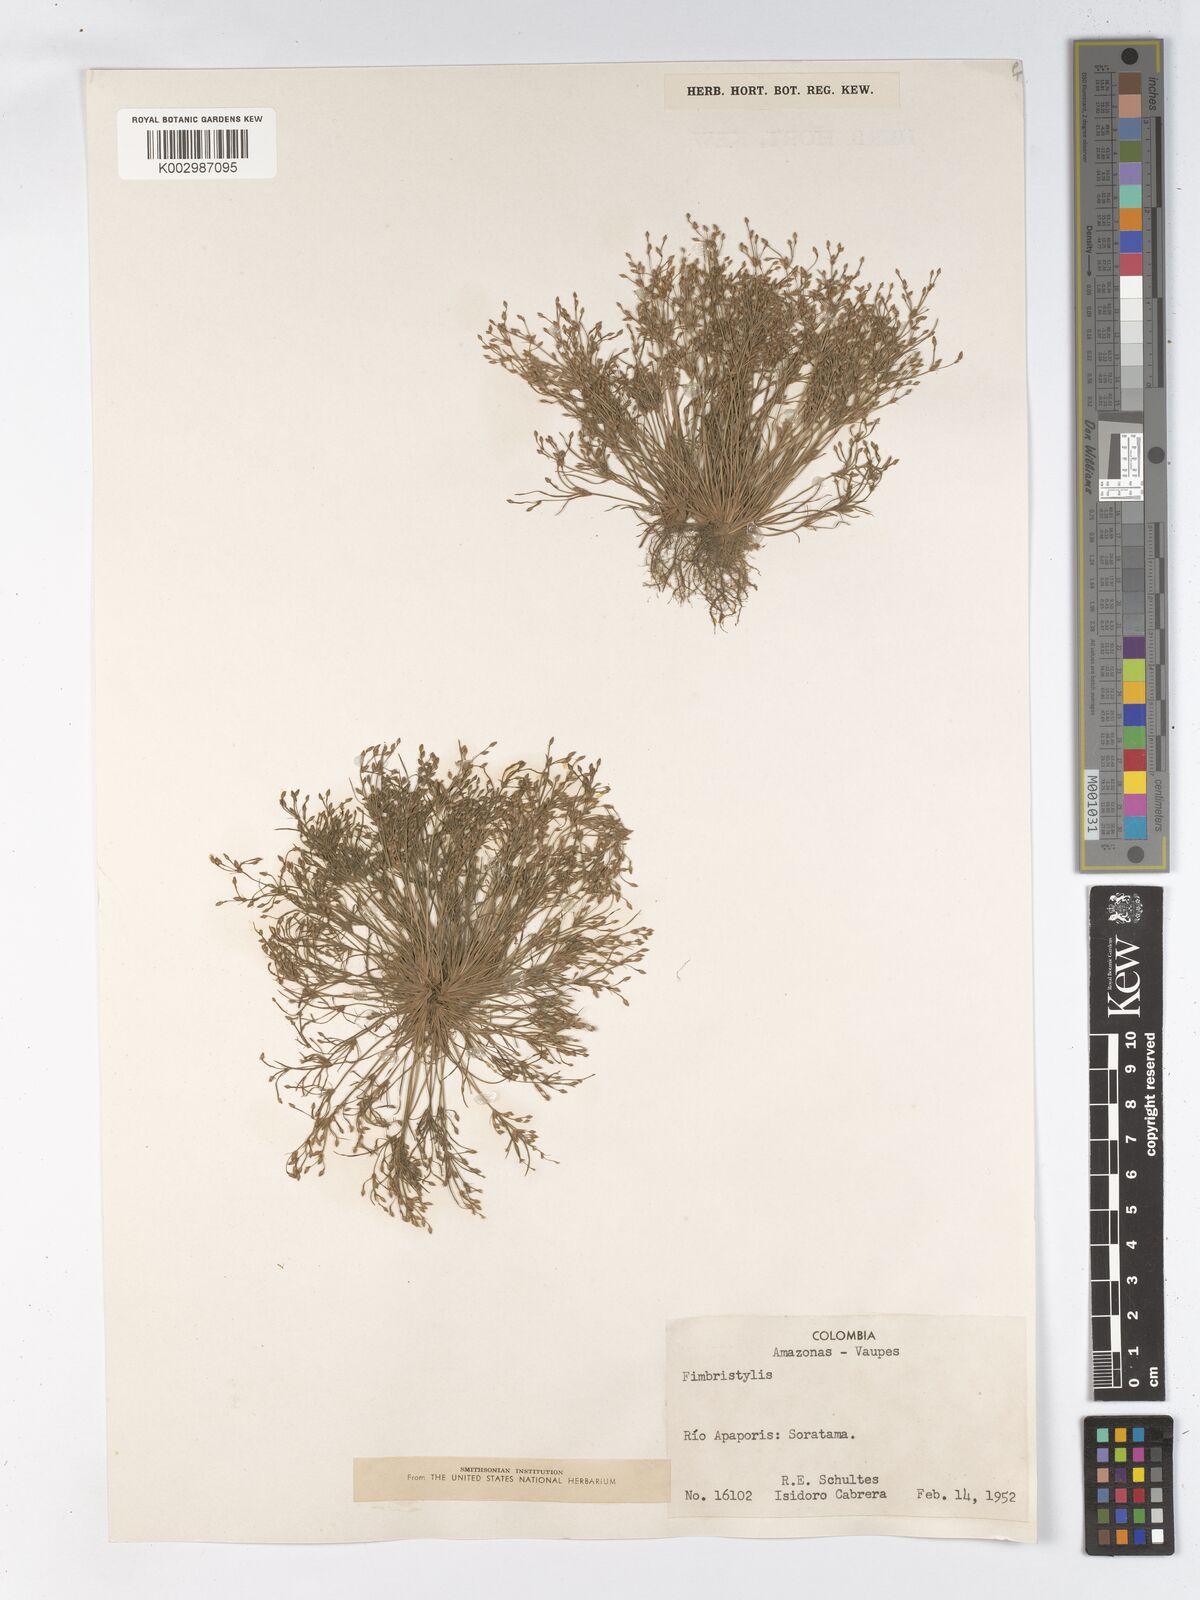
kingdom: Plantae
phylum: Tracheophyta
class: Liliopsida
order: Poales
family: Cyperaceae
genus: Fimbristylis
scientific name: Fimbristylis
